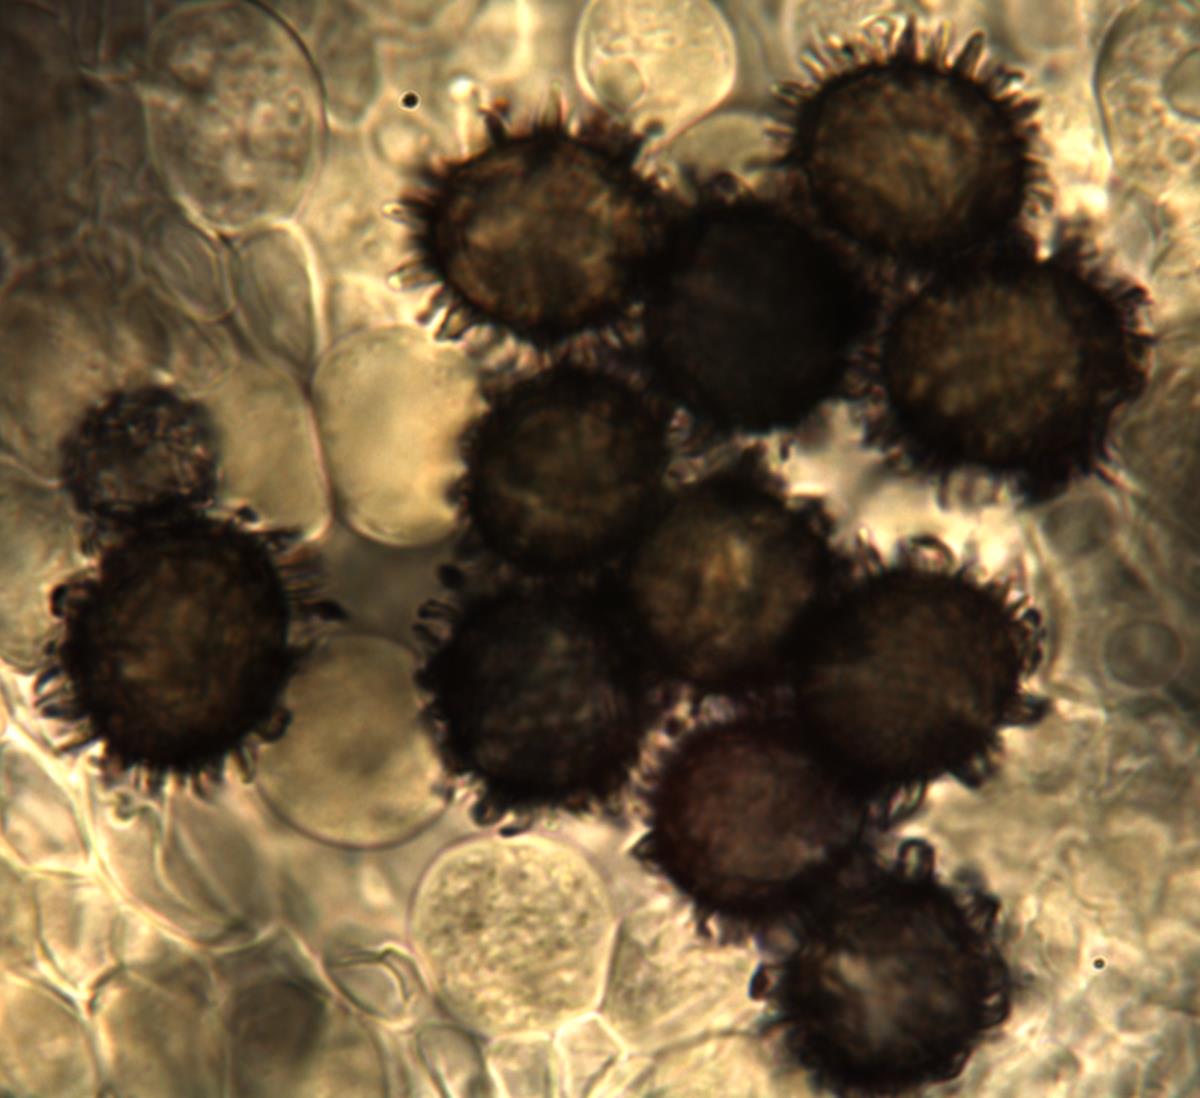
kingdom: Fungi
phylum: Basidiomycota
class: Agaricomycetes
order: Russulales
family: Russulaceae
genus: Russula
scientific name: Russula osphranticarpa
